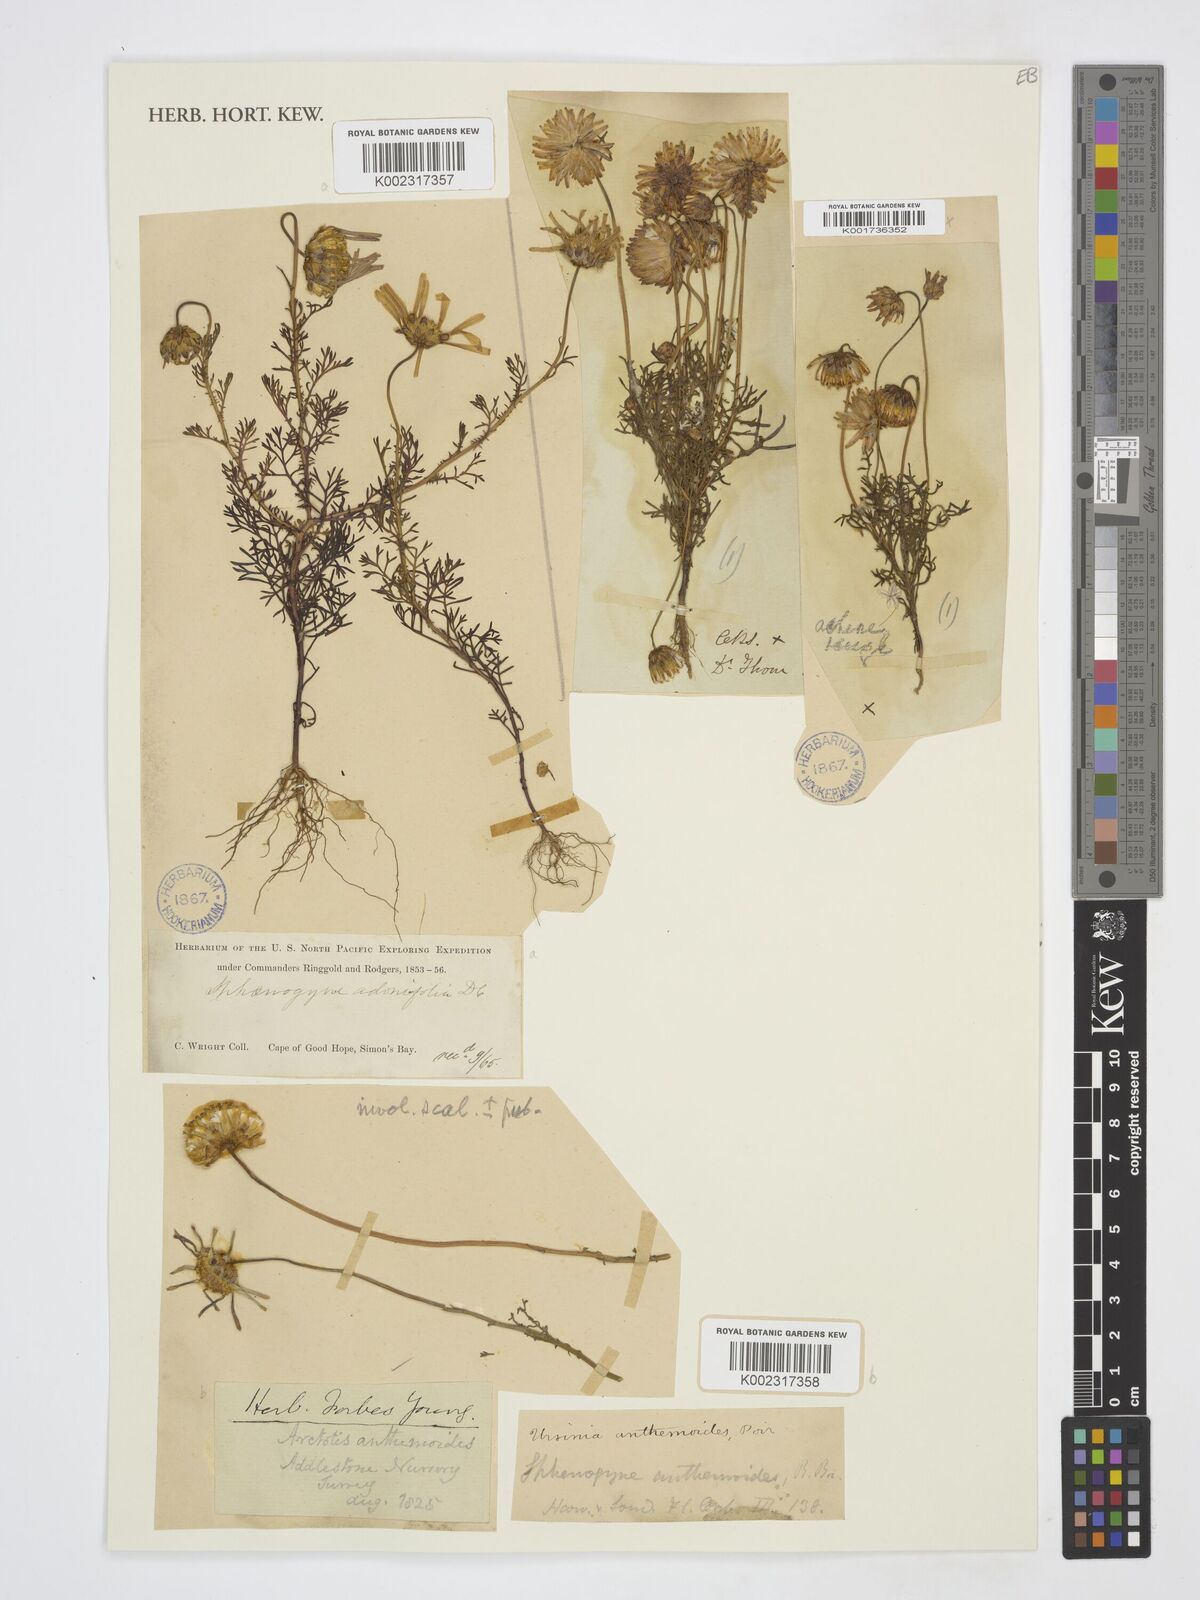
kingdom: Plantae
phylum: Tracheophyta
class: Magnoliopsida
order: Asterales
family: Asteraceae
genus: Ursinia
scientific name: Ursinia anthemoides
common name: Ursinia
